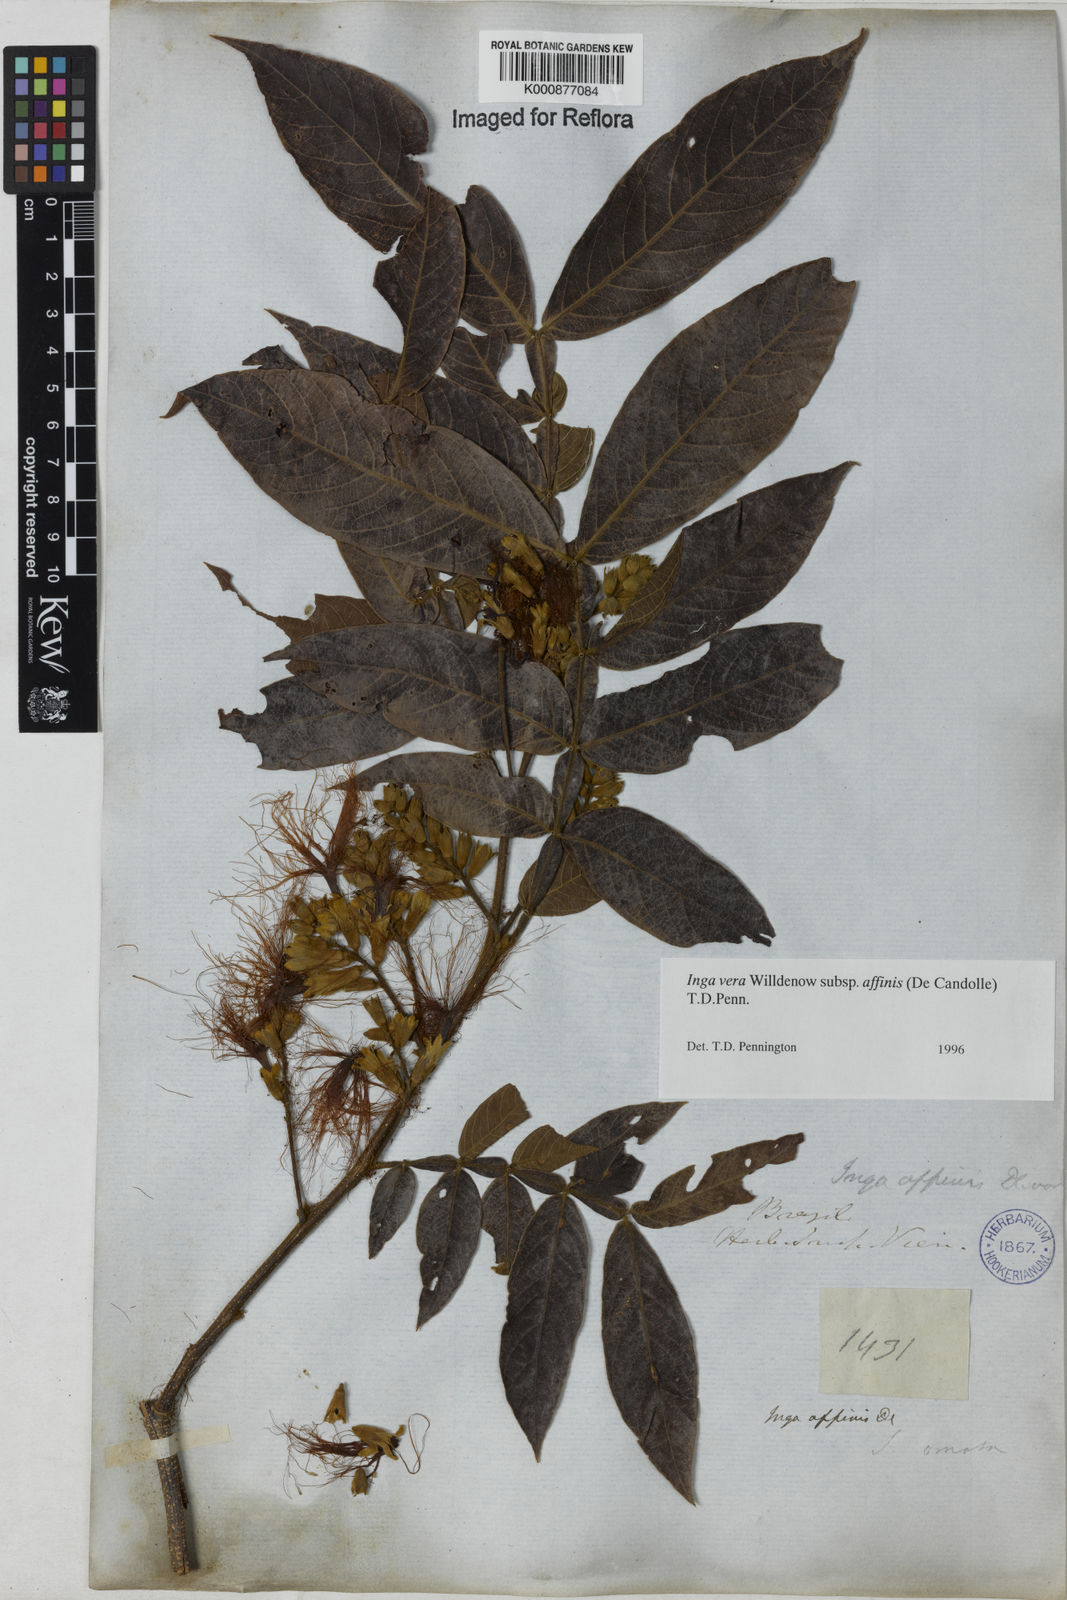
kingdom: Plantae
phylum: Tracheophyta
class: Magnoliopsida
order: Fabales
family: Fabaceae
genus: Inga
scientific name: Inga affinis
